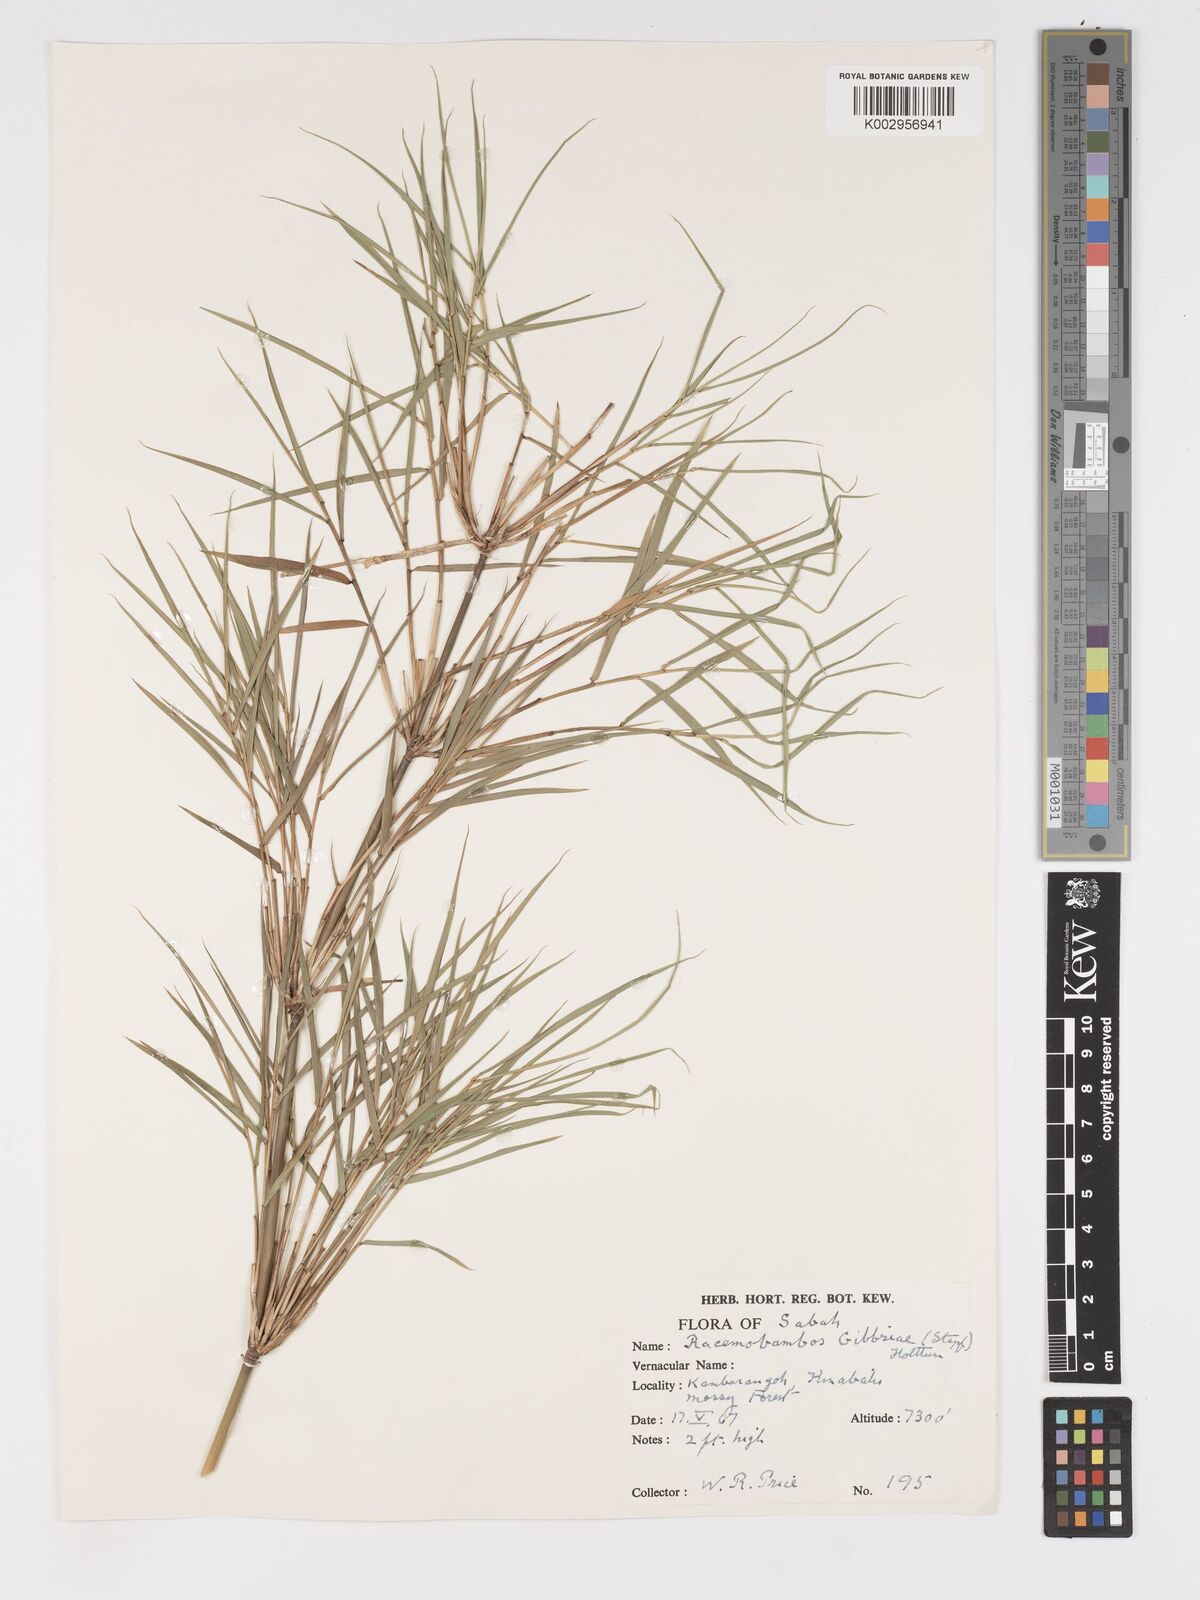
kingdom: Plantae
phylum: Tracheophyta
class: Liliopsida
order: Poales
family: Poaceae
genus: Racemobambos
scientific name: Racemobambos gibbsiae
